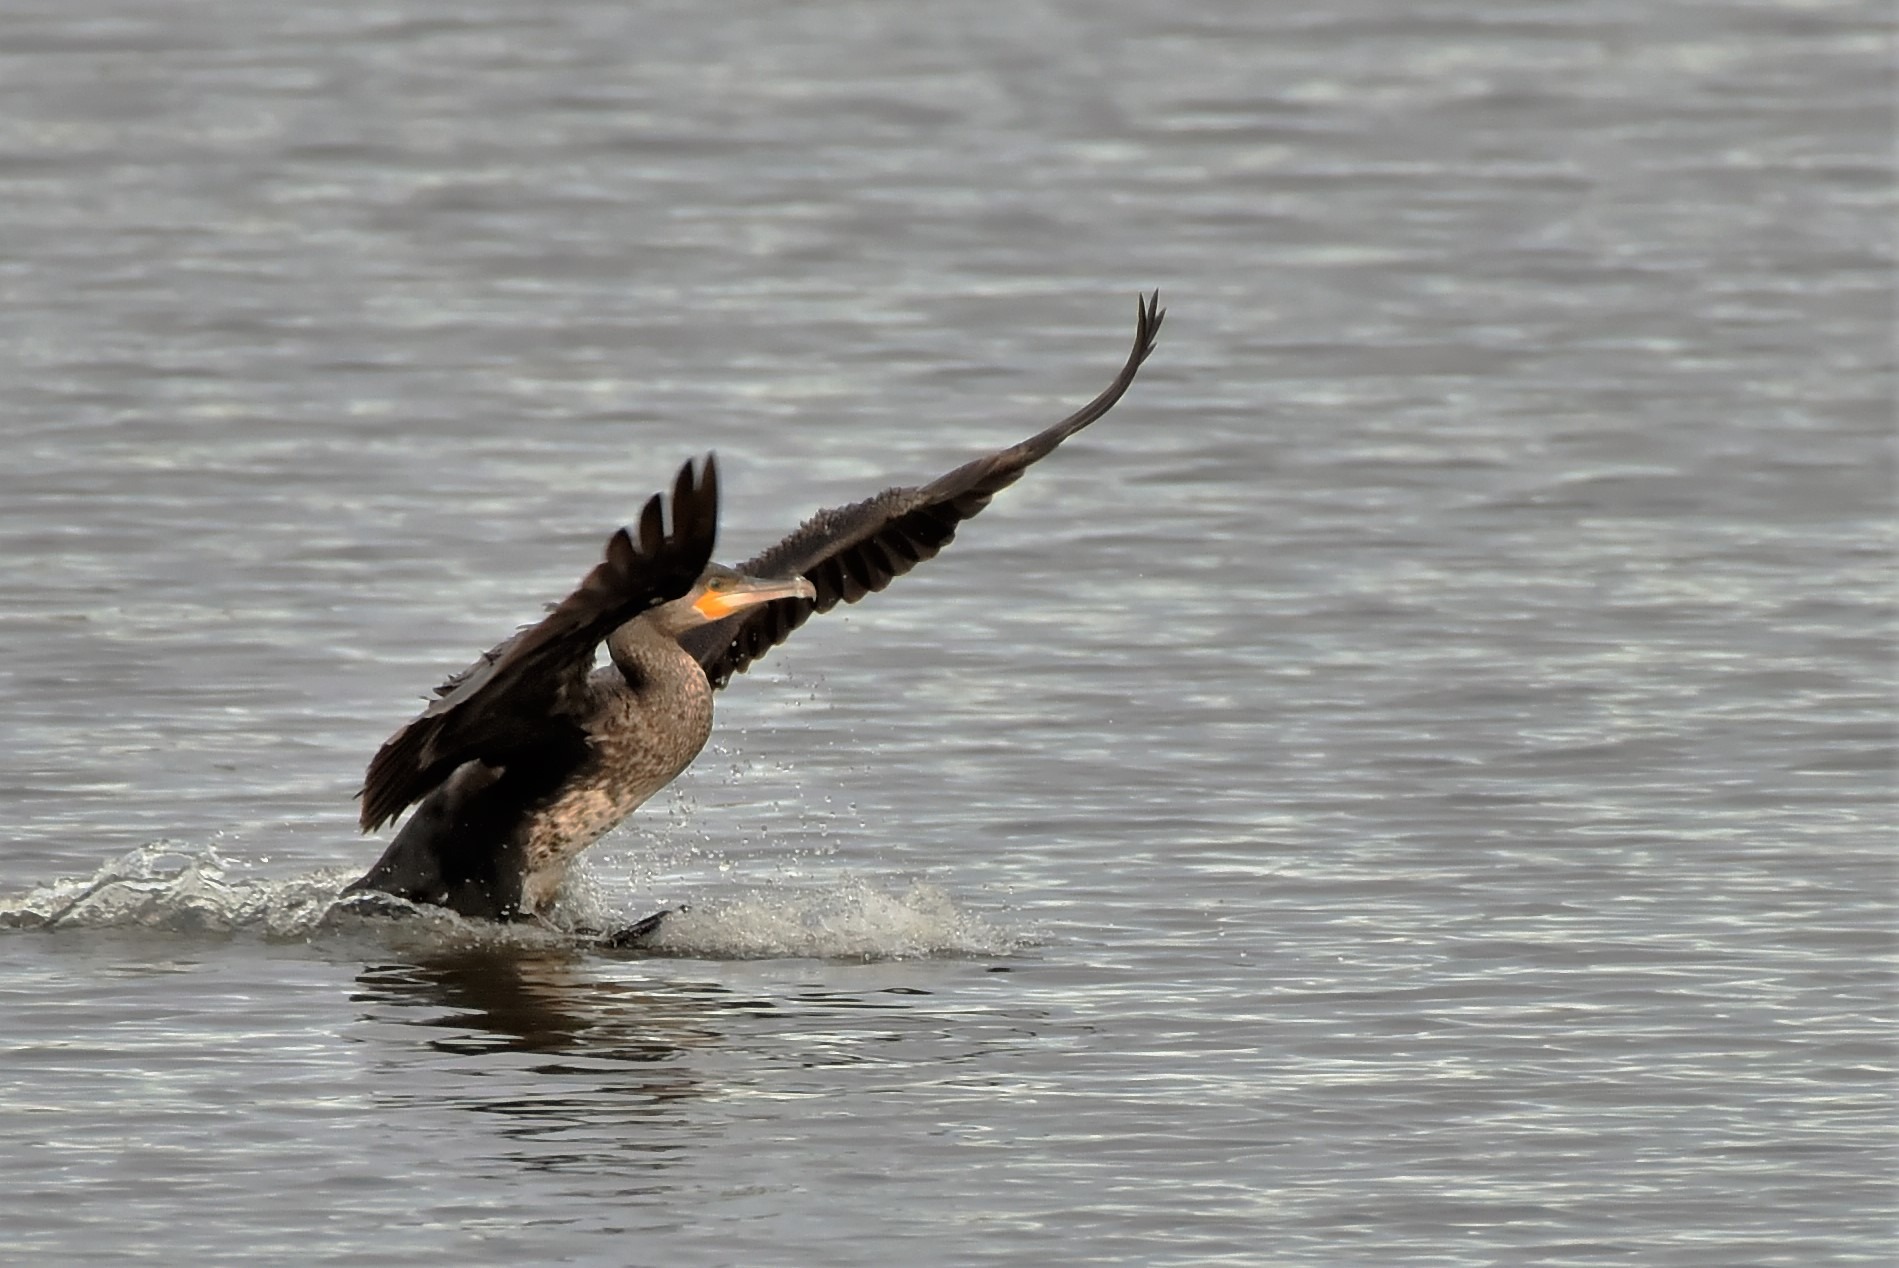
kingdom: Animalia
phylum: Chordata
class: Aves
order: Suliformes
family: Phalacrocoracidae
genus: Phalacrocorax
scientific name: Phalacrocorax carbo
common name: Skarv
